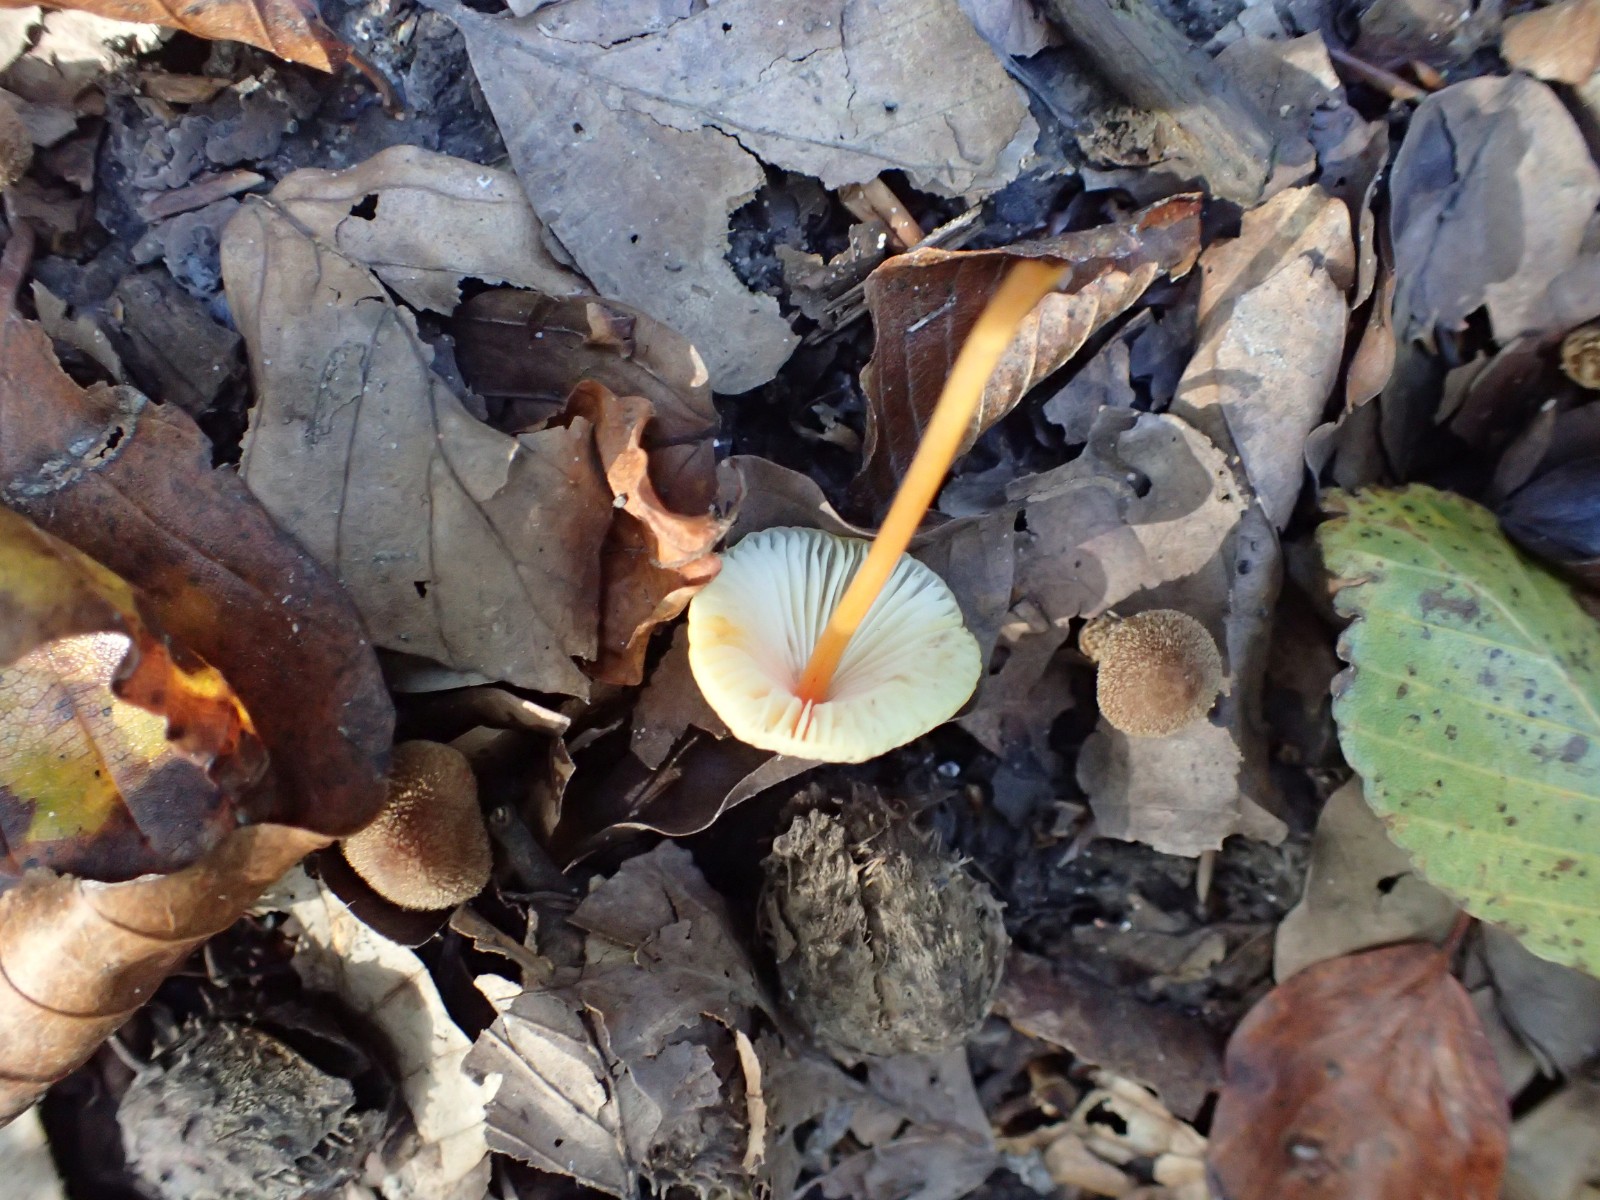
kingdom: Fungi
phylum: Basidiomycota
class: Agaricomycetes
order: Agaricales
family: Mycenaceae
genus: Mycena
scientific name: Mycena crocata
